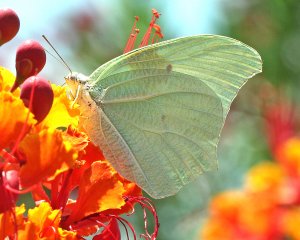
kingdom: Animalia
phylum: Arthropoda
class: Insecta
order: Lepidoptera
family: Pieridae
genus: Anteos
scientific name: Anteos clorinde
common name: White Angled-Sulphur
